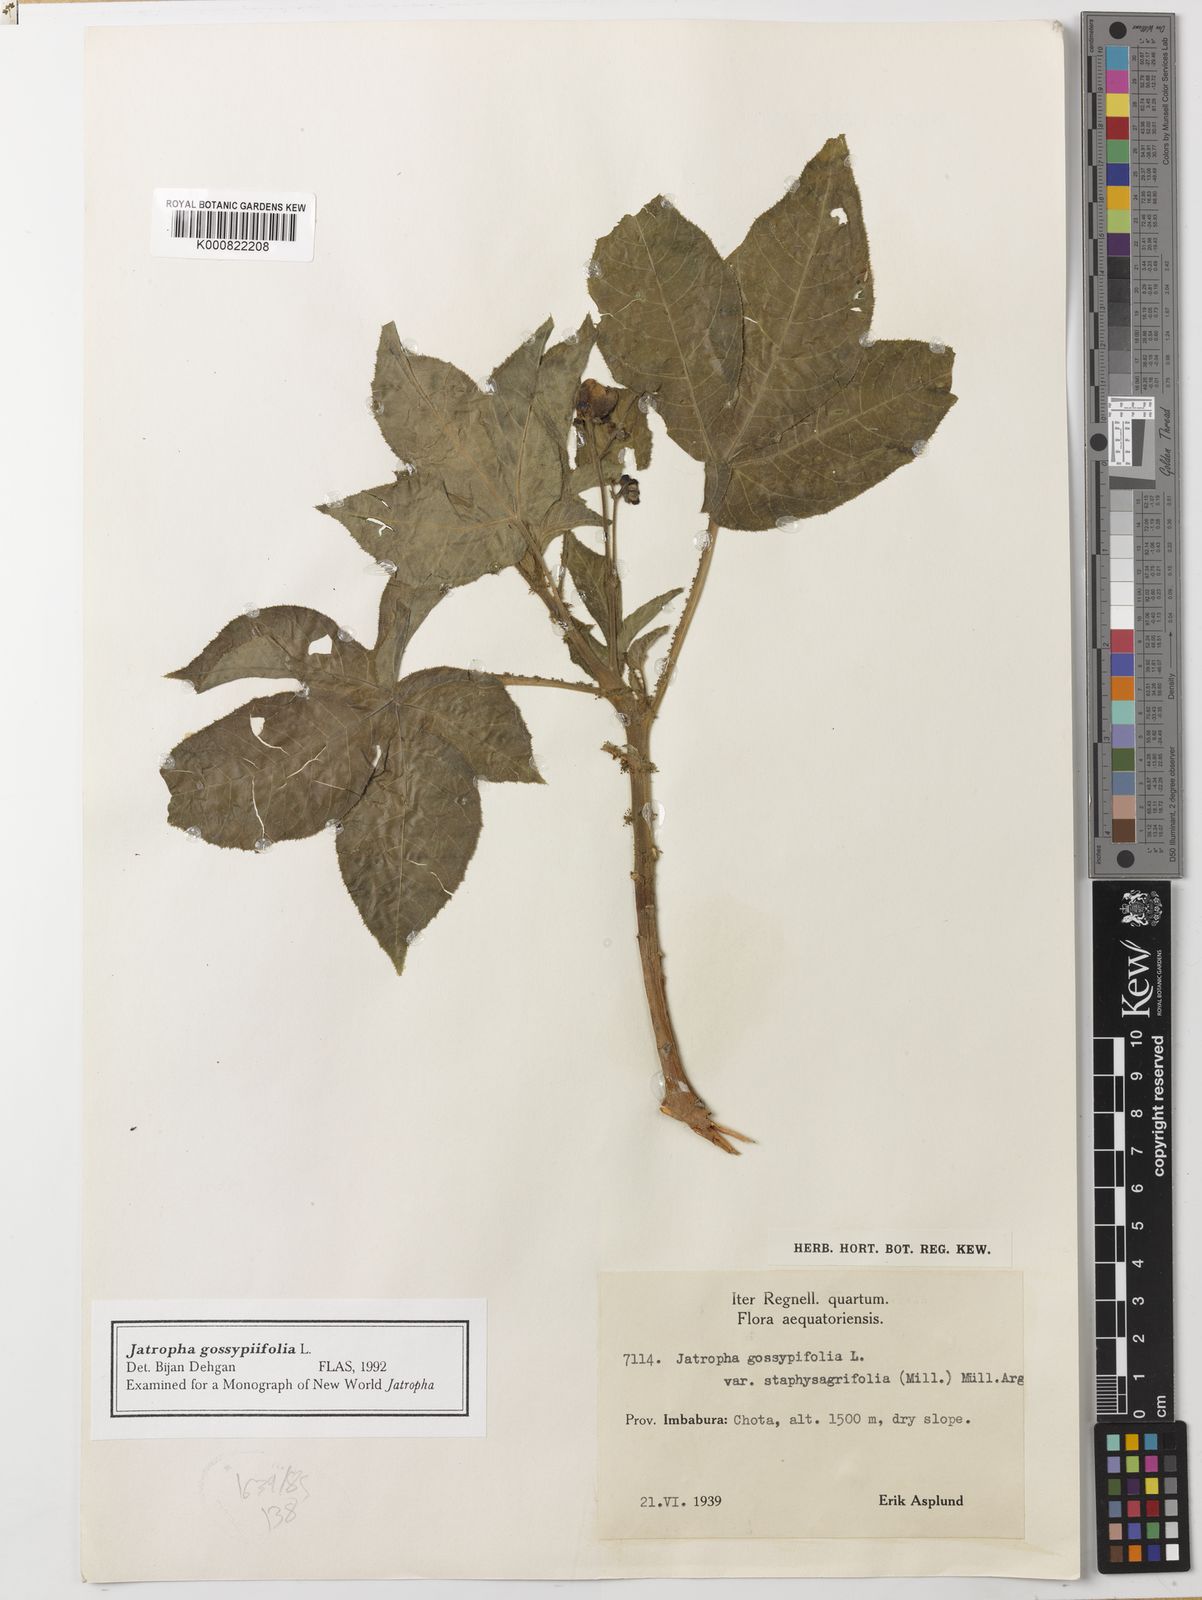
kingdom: Plantae
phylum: Tracheophyta
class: Magnoliopsida
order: Malpighiales
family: Euphorbiaceae
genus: Jatropha
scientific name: Jatropha gossypiifolia
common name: Bellyache bush
